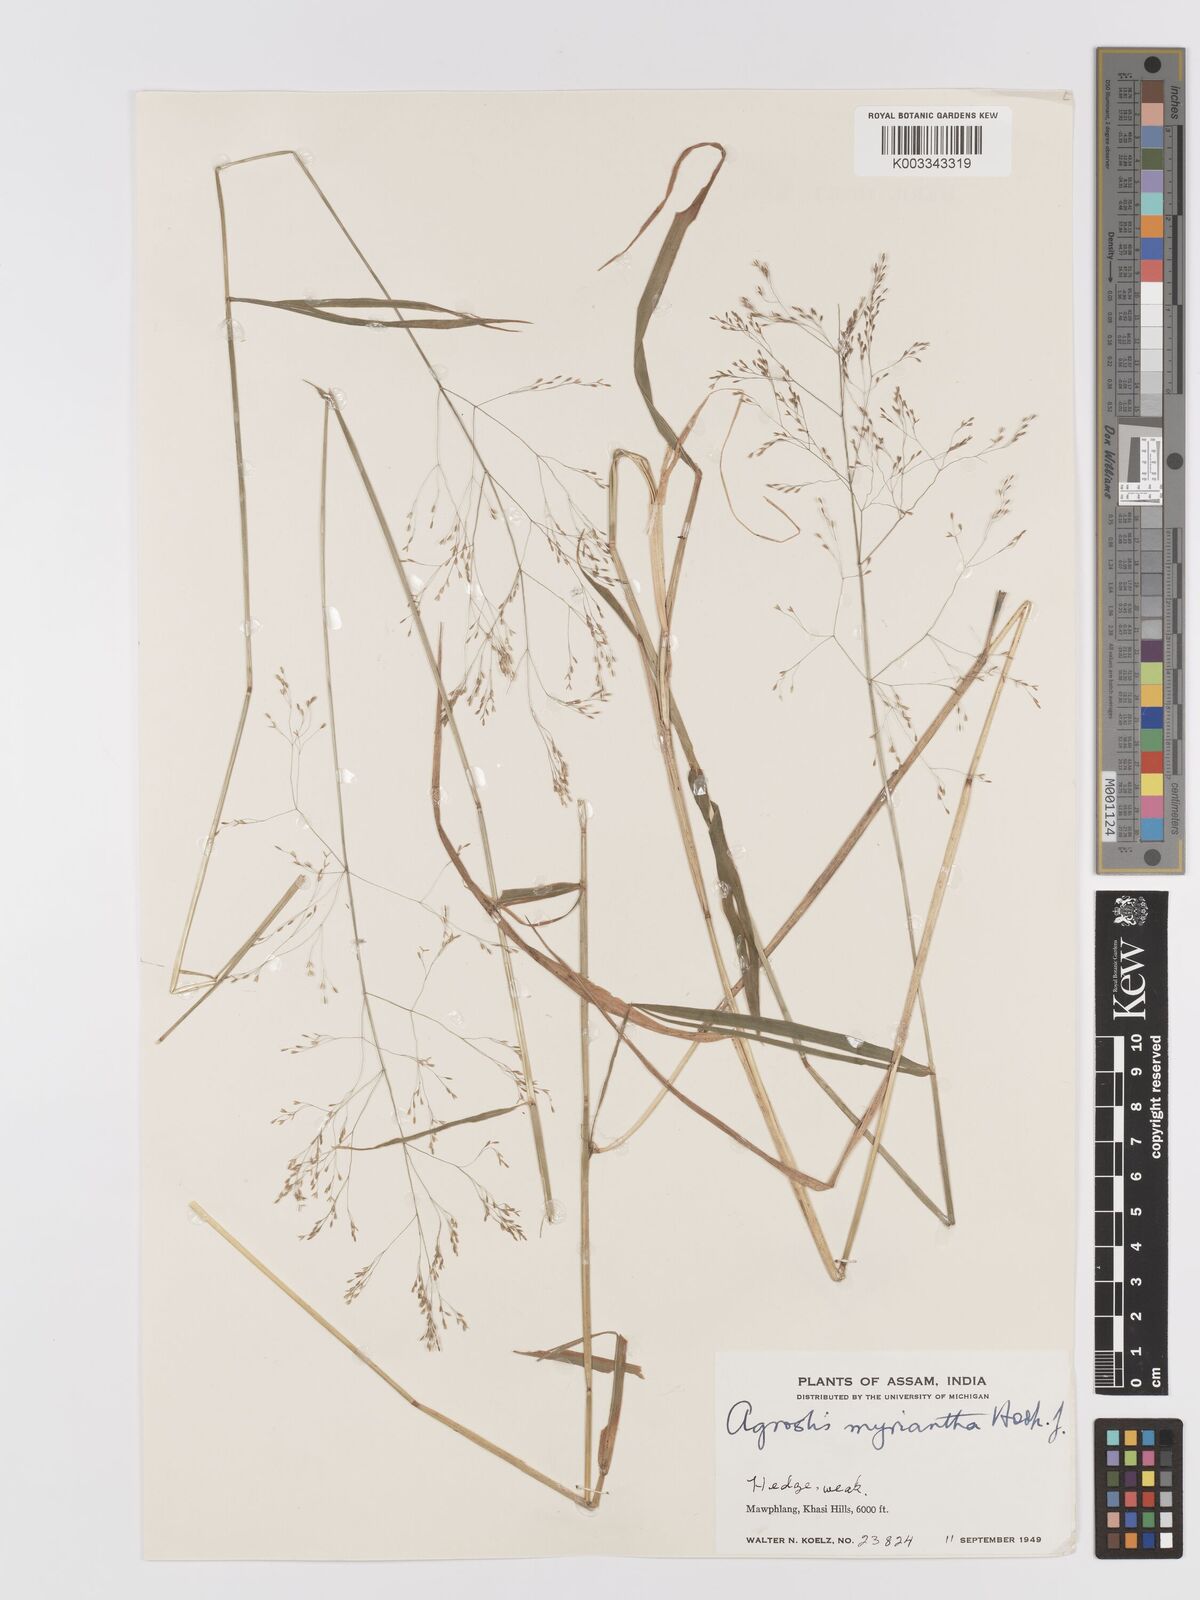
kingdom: Plantae
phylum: Tracheophyta
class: Liliopsida
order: Poales
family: Poaceae
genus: Agrostis
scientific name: Agrostis micrantha
